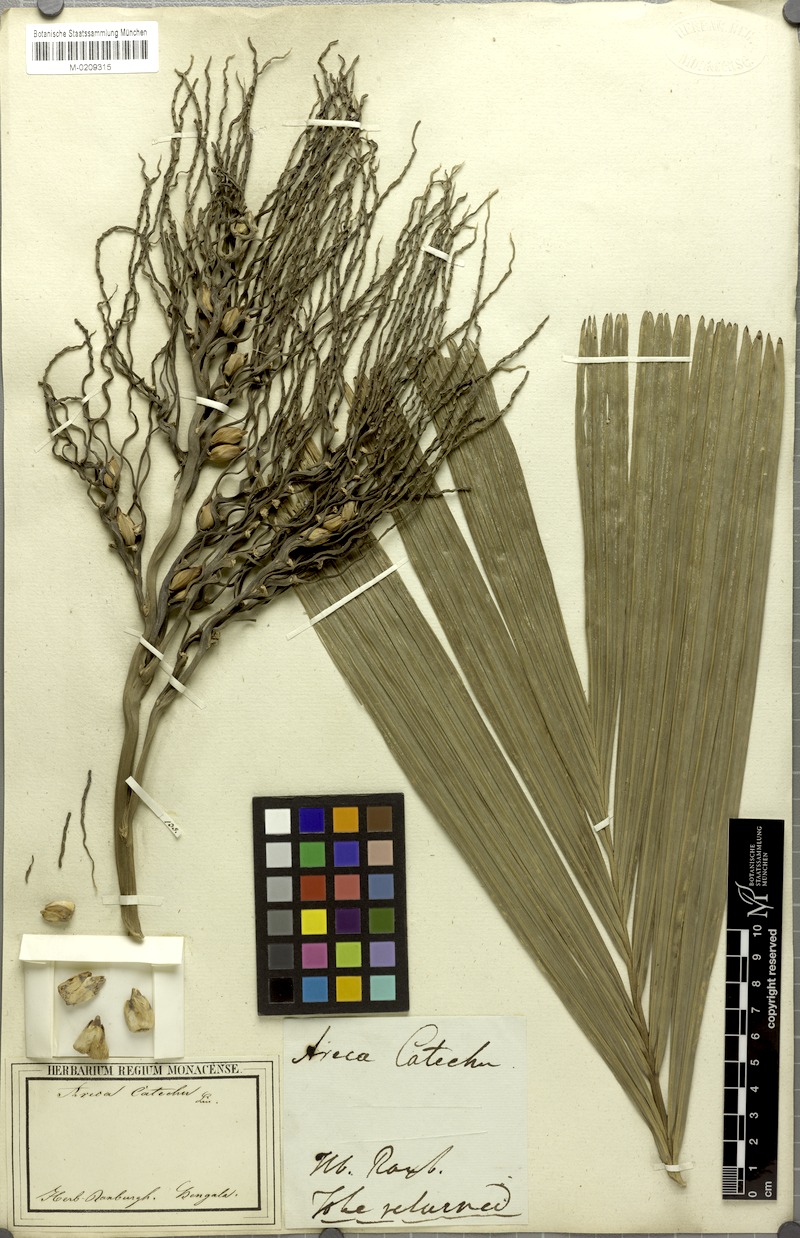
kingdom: Plantae
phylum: Tracheophyta
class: Liliopsida
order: Arecales
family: Arecaceae
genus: Areca
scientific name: Areca catechu
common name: Indian-nut
